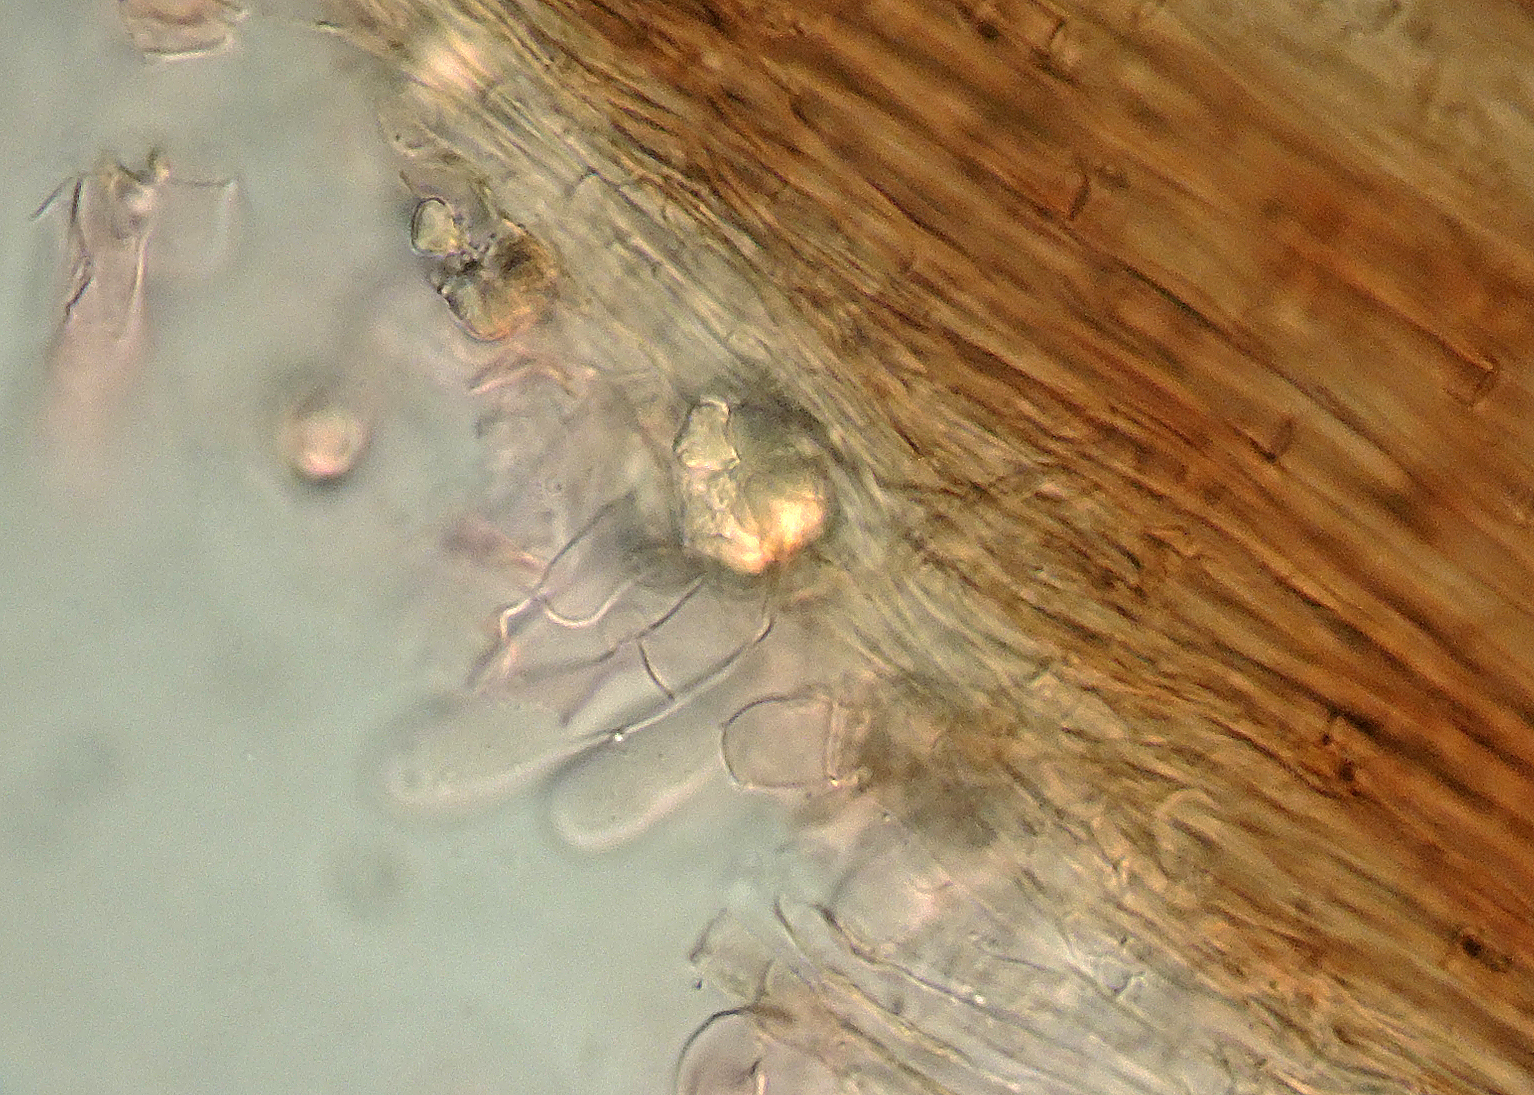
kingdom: Fungi
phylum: Basidiomycota
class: Agaricomycetes
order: Agaricales
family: Omphalotaceae
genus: Gymnopus
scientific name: Gymnopus foetidus
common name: stinkende fladhat
